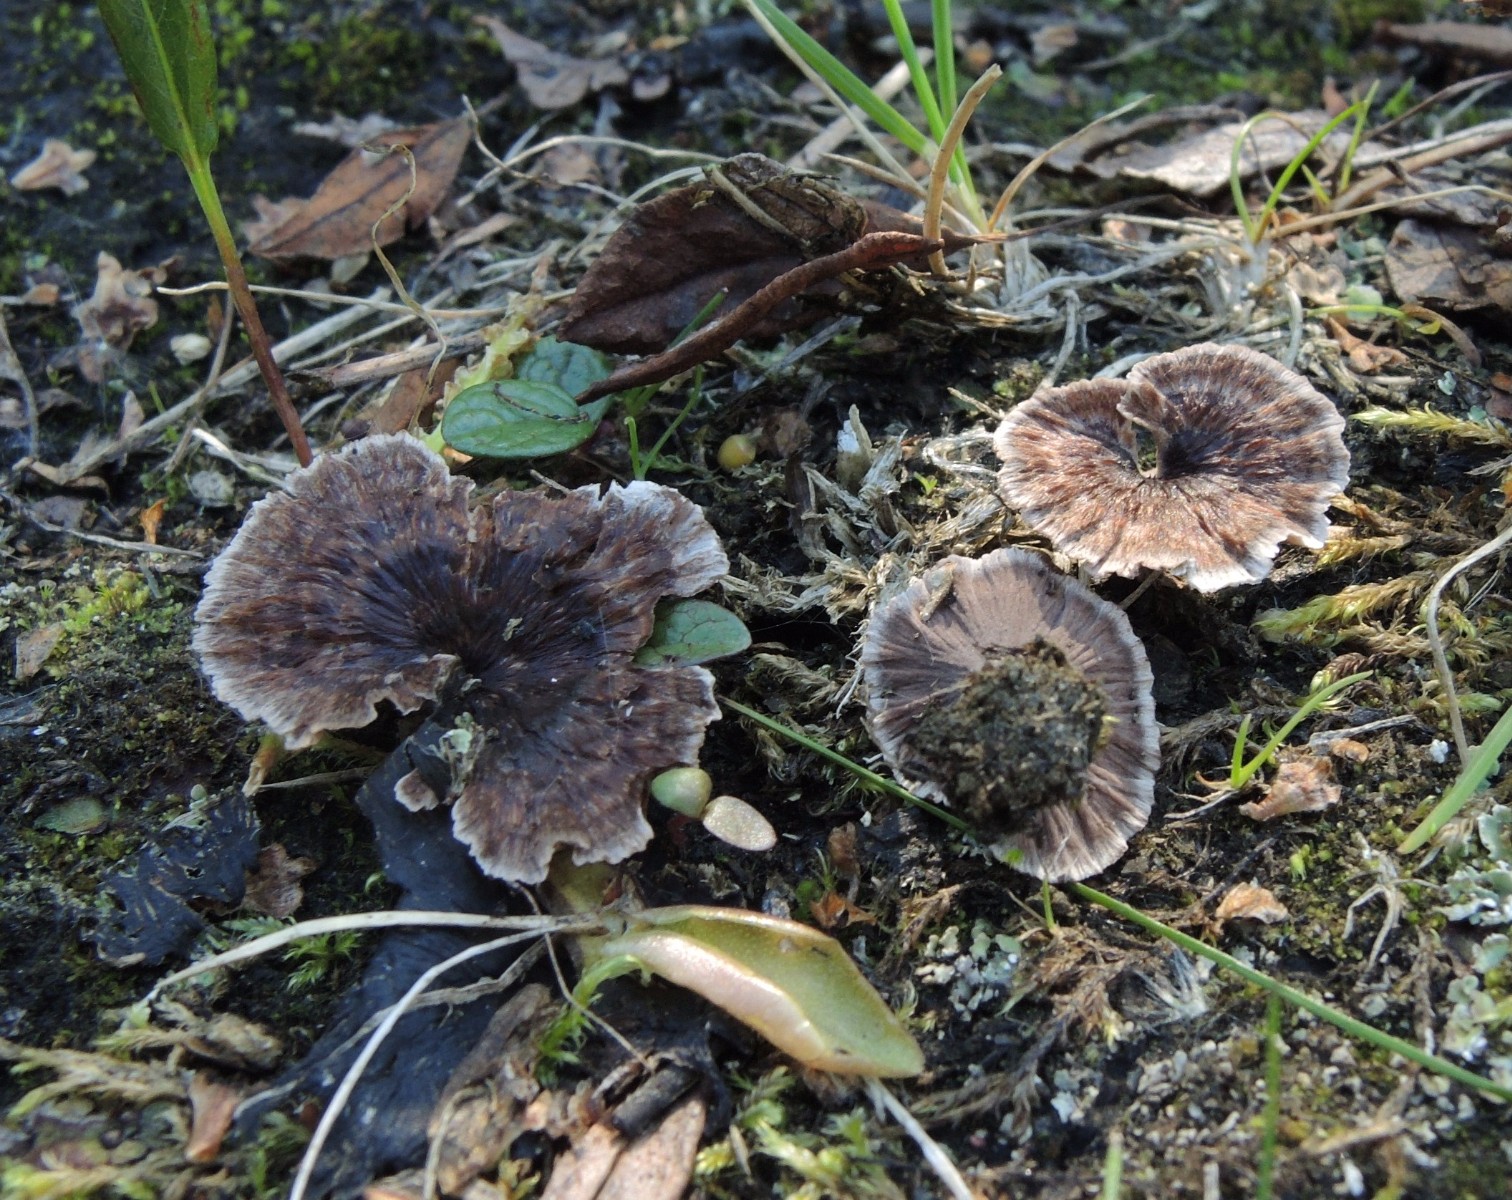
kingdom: Fungi
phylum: Basidiomycota
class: Agaricomycetes
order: Thelephorales
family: Thelephoraceae
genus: Thelephora
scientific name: Thelephora caryophyllea
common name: tragt-frynsesvamp
